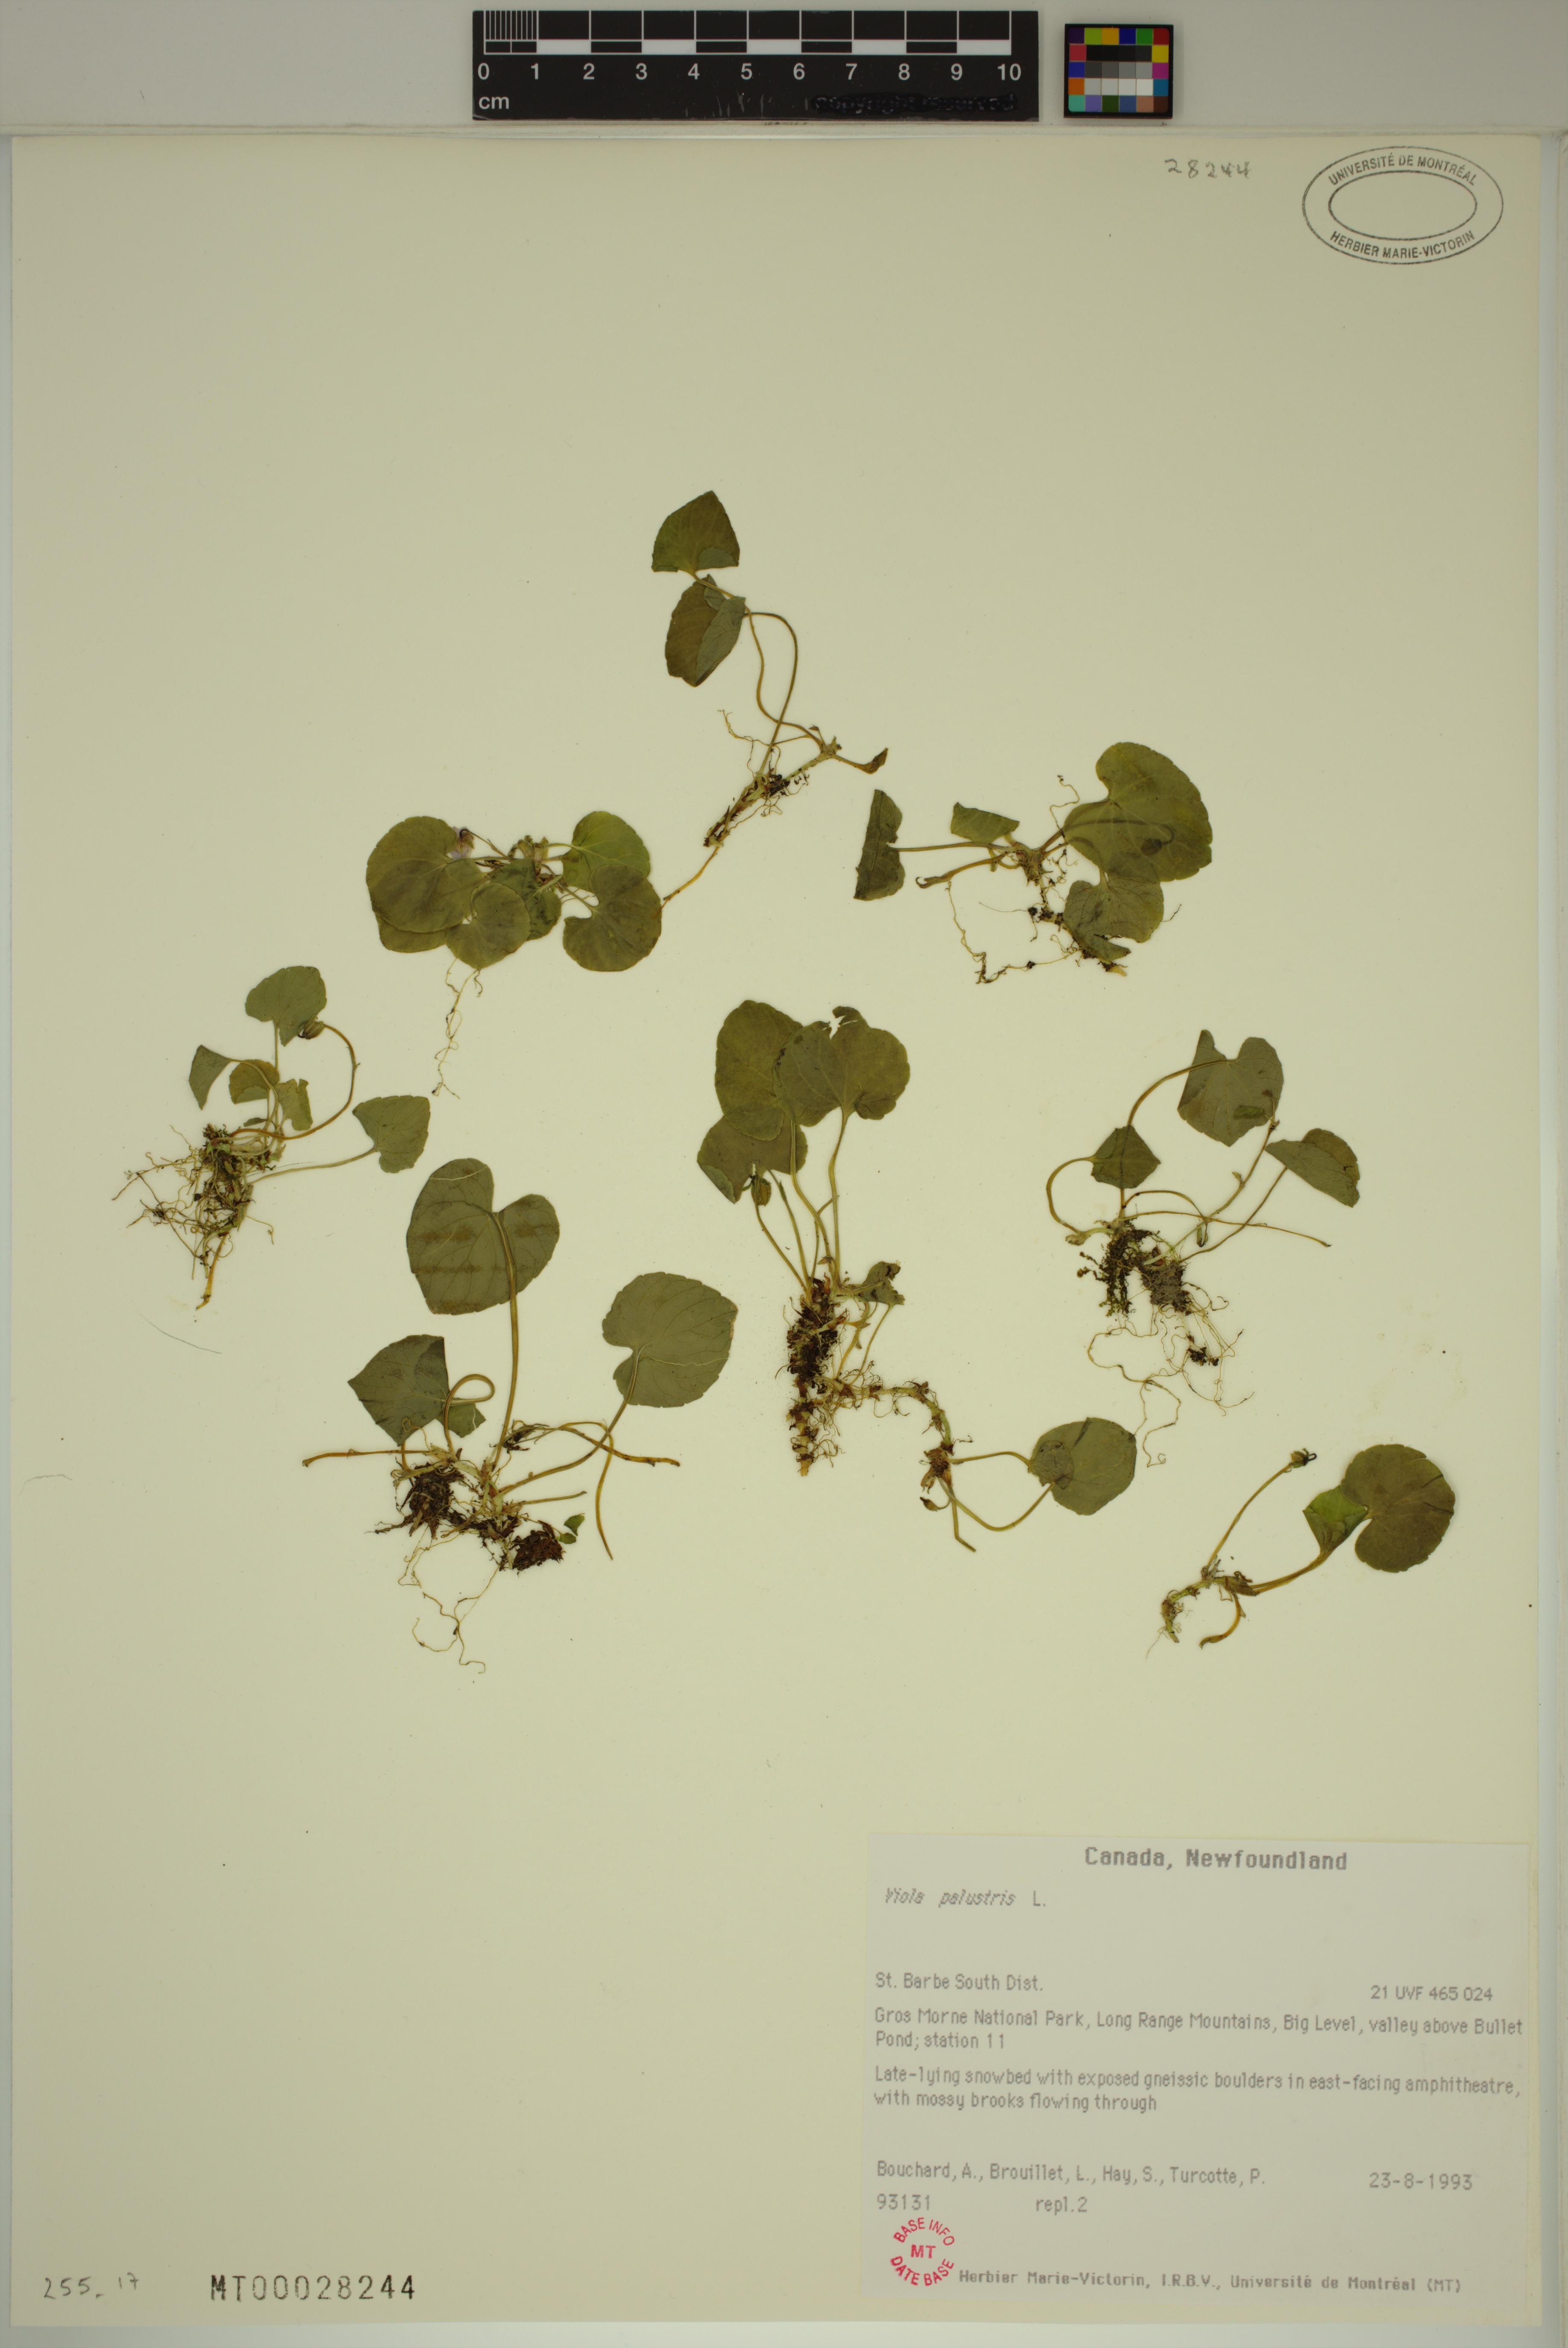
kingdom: Plantae
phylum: Tracheophyta
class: Magnoliopsida
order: Malpighiales
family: Violaceae
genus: Viola
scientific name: Viola palustris
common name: Marsh violet
